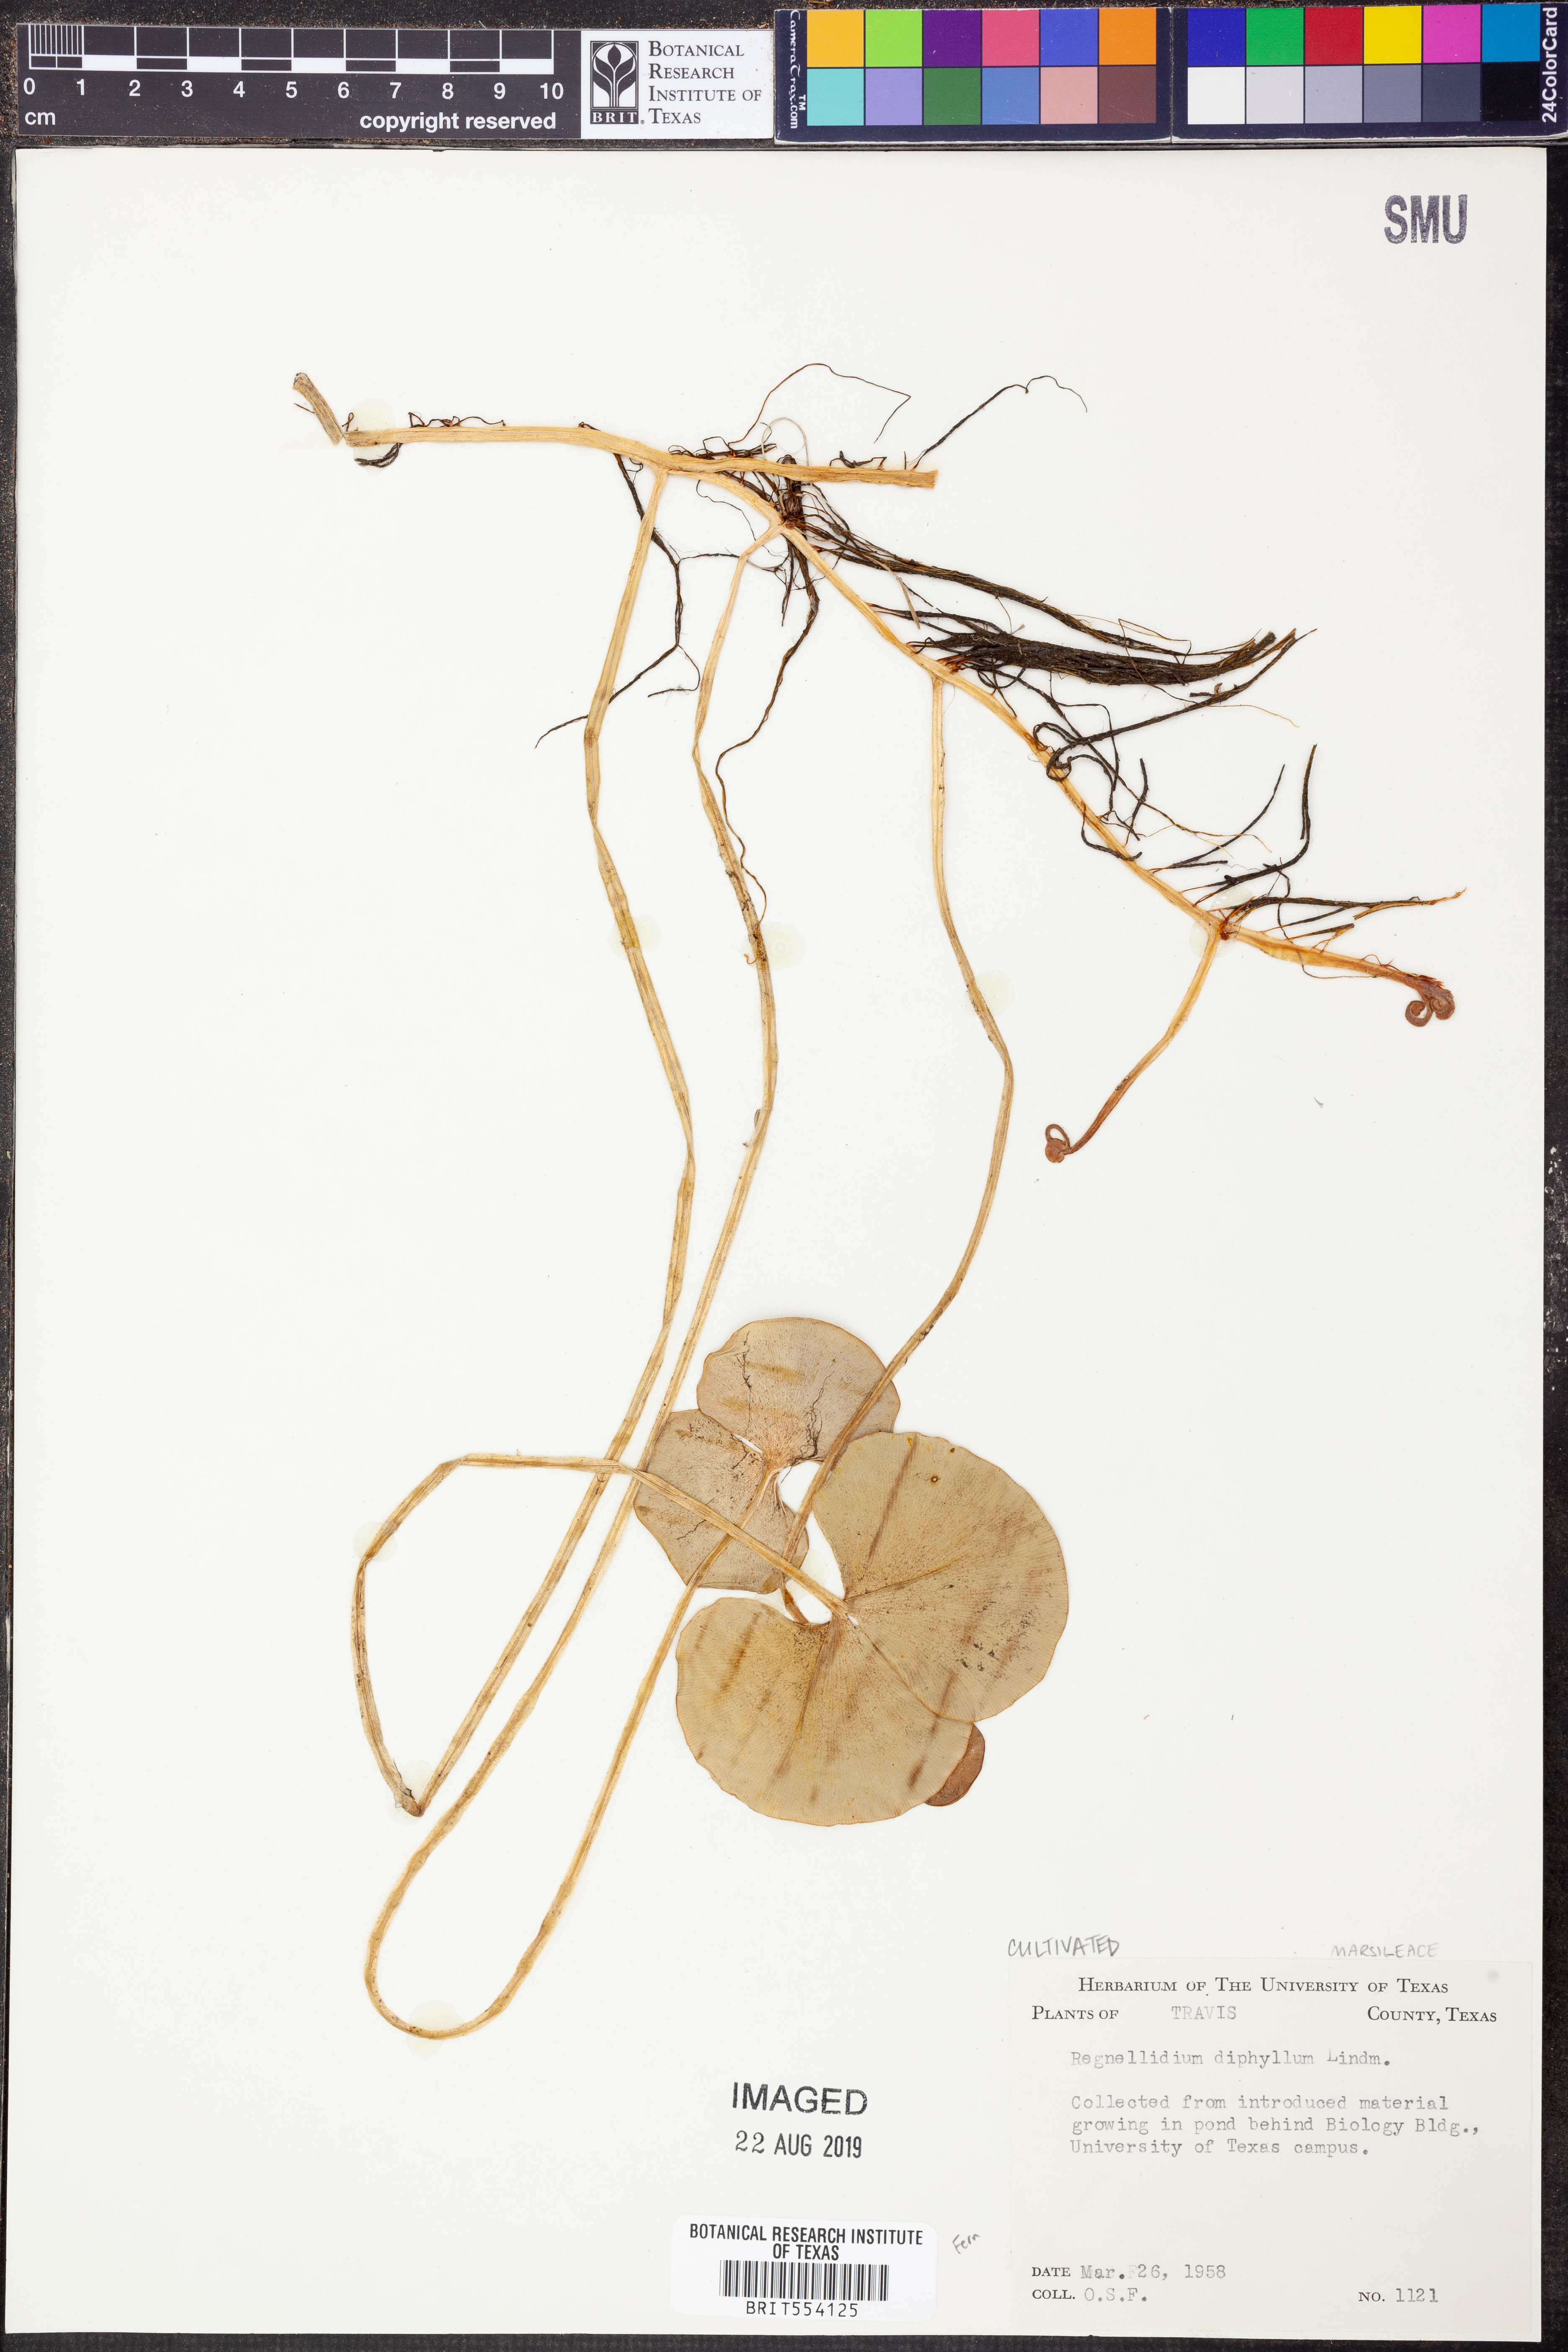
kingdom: Plantae
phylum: Tracheophyta
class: Polypodiopsida
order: Salviniales
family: Marsileaceae
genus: Regnellidium
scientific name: Regnellidium diphyllum
